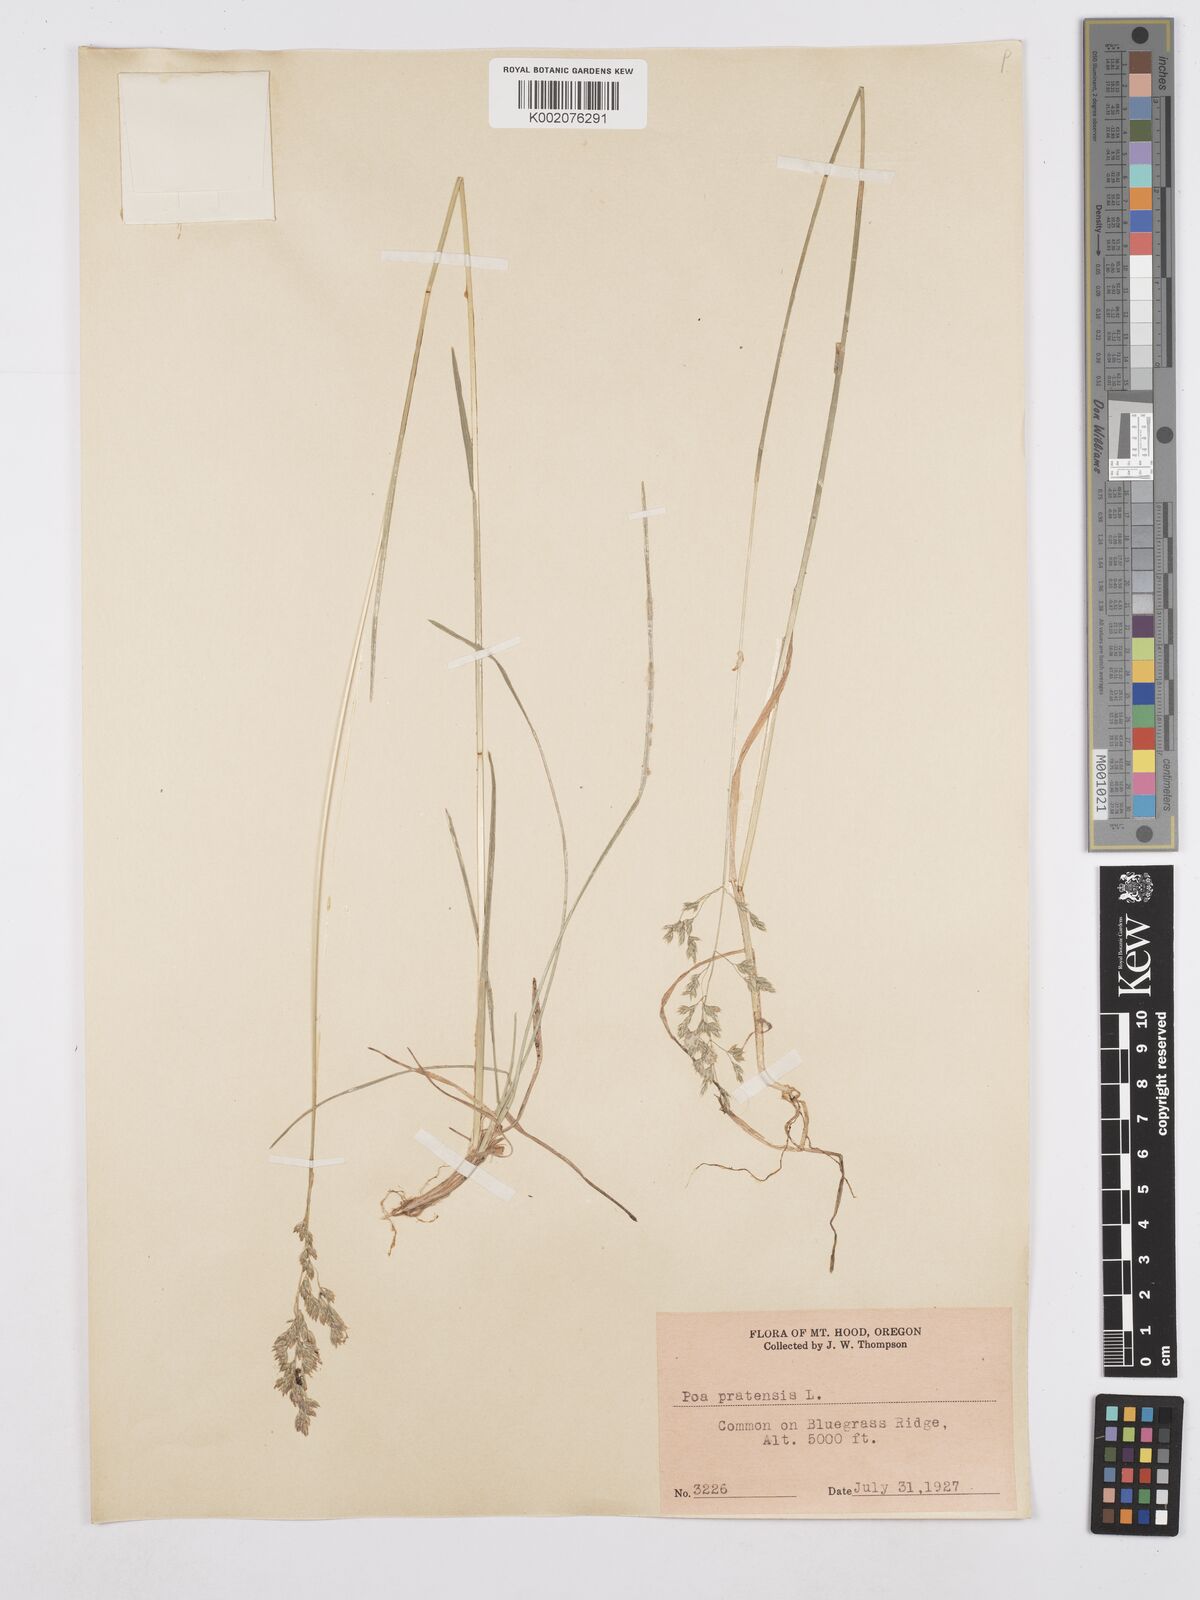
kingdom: Plantae
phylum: Tracheophyta
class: Liliopsida
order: Poales
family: Poaceae
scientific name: Poaceae
